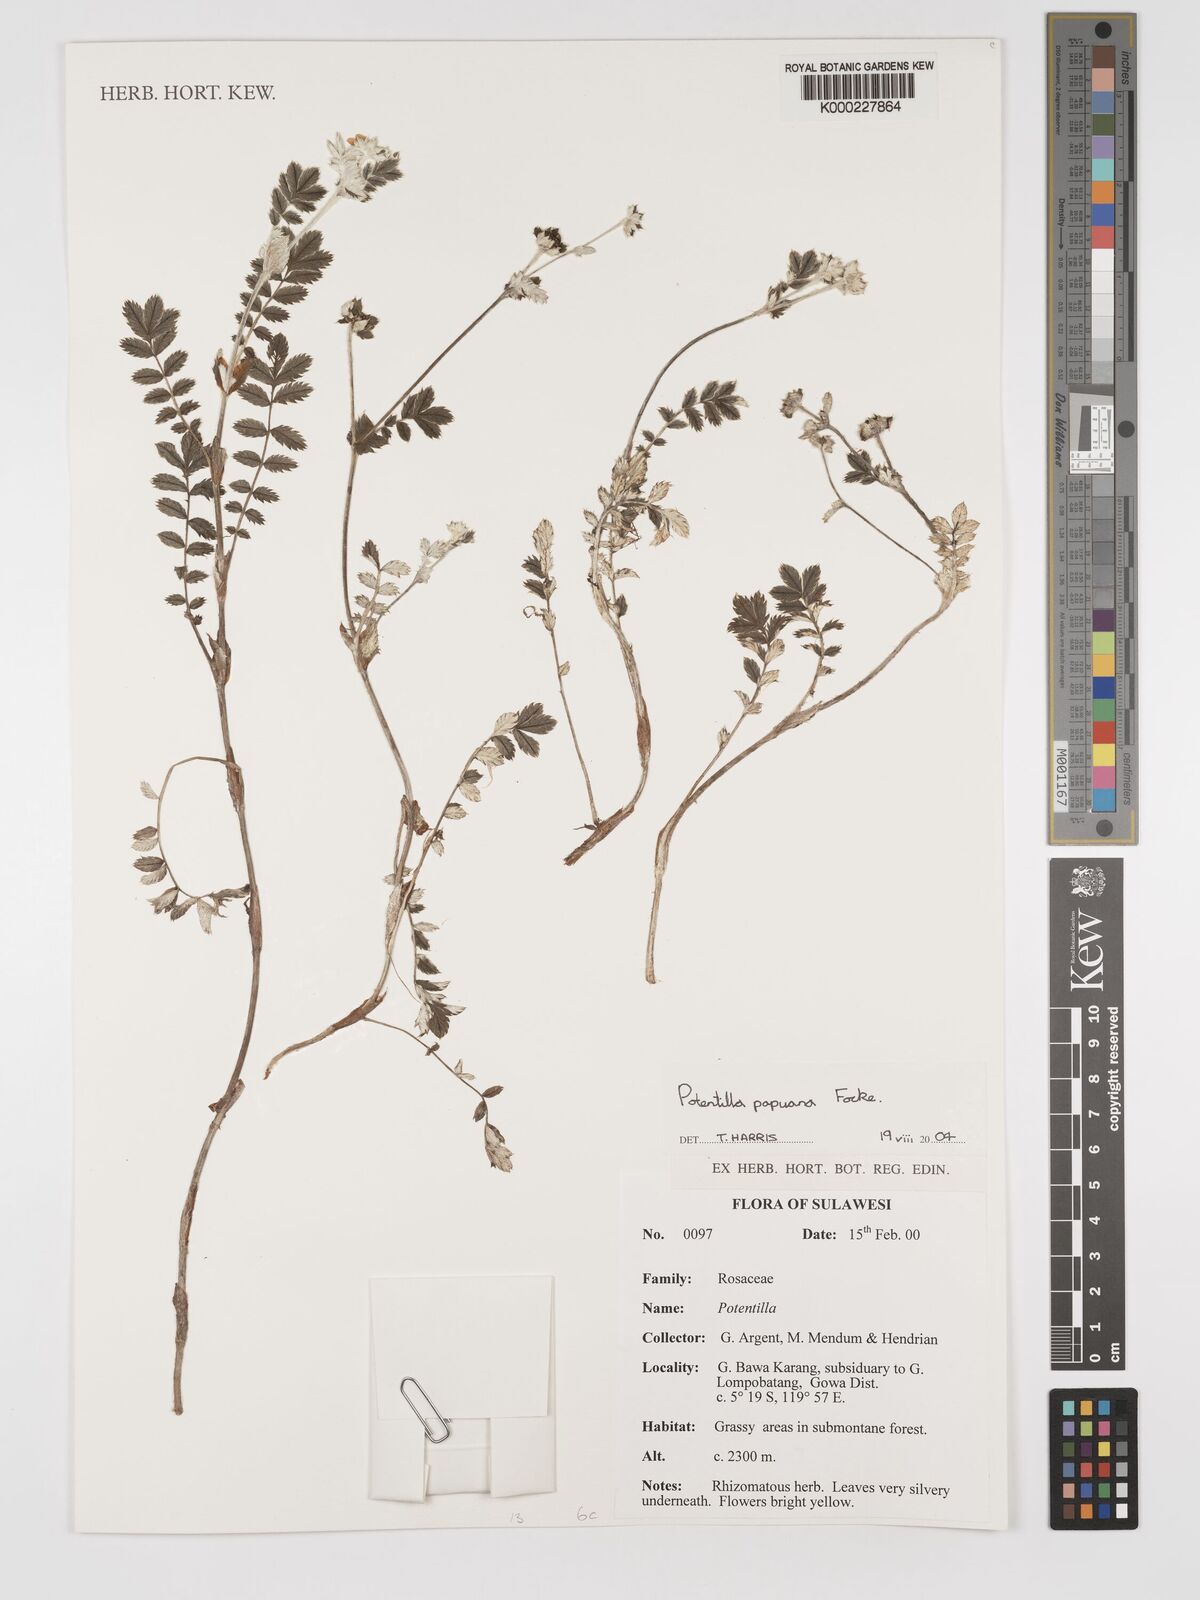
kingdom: Plantae
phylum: Tracheophyta
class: Magnoliopsida
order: Rosales
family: Rosaceae
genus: Argentina
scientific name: Argentina papuana
